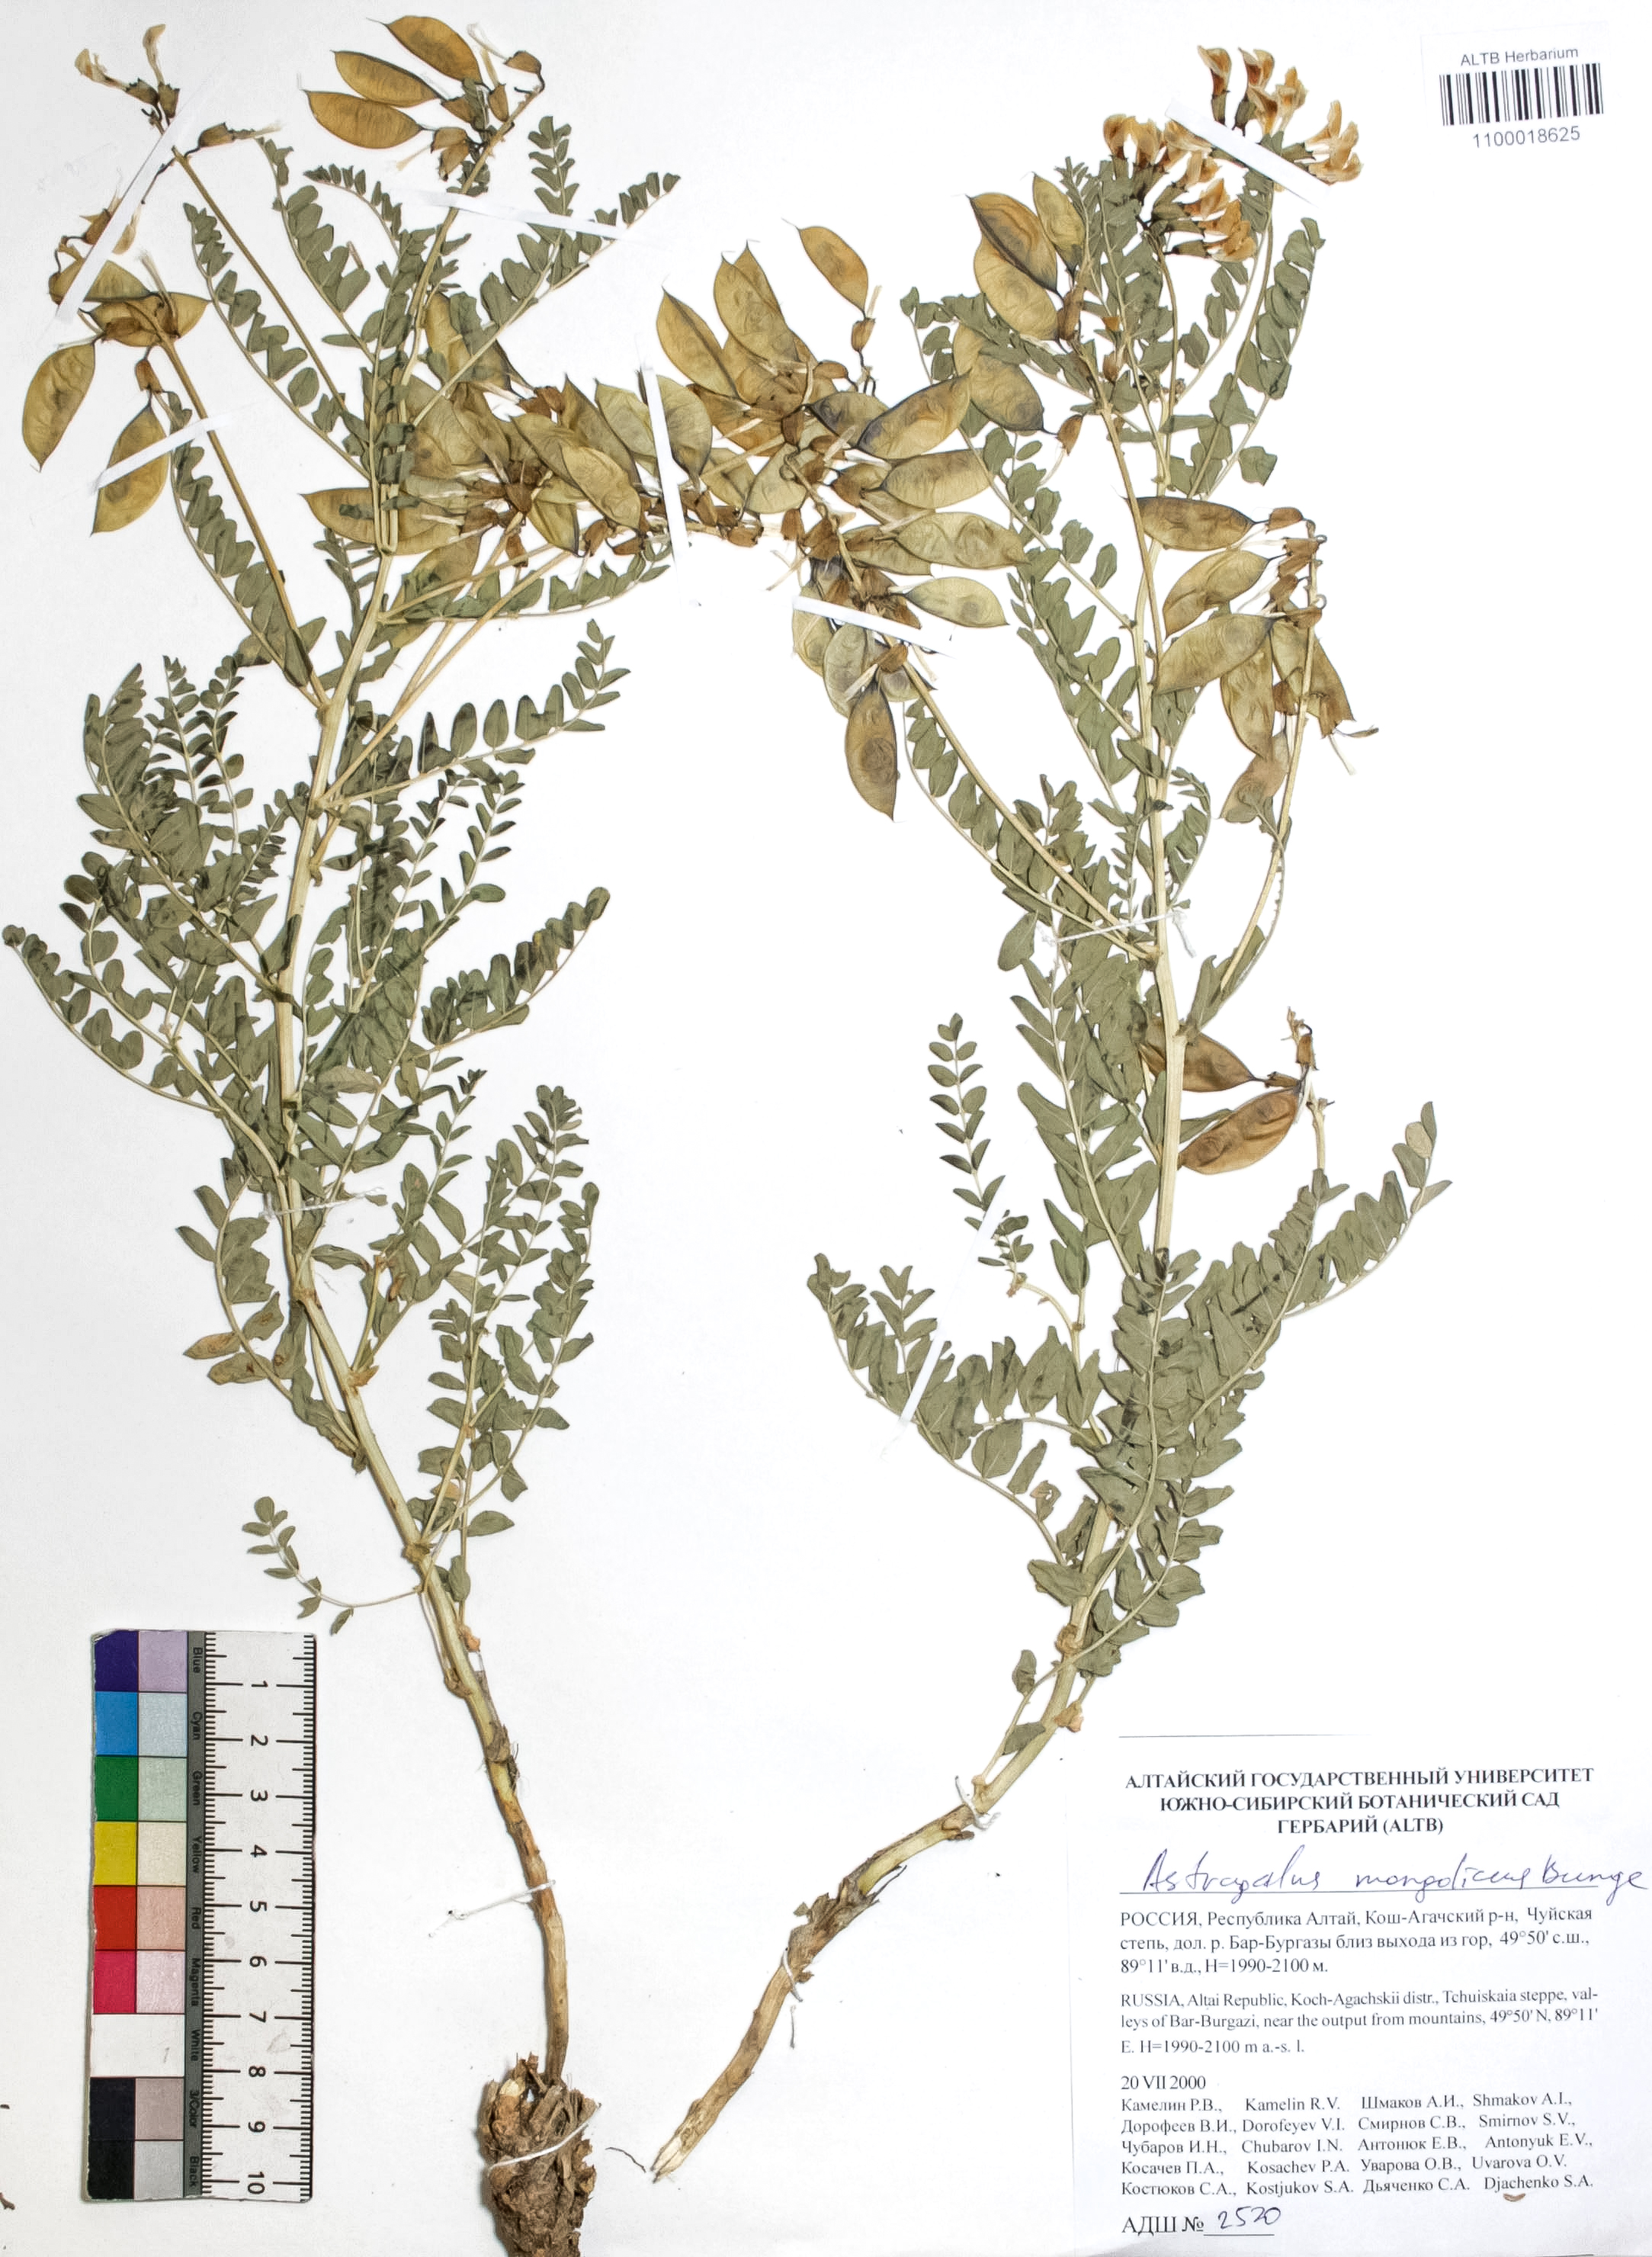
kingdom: Plantae
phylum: Tracheophyta
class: Magnoliopsida
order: Fabales
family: Fabaceae
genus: Astragalus
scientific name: Astragalus mongolicus
